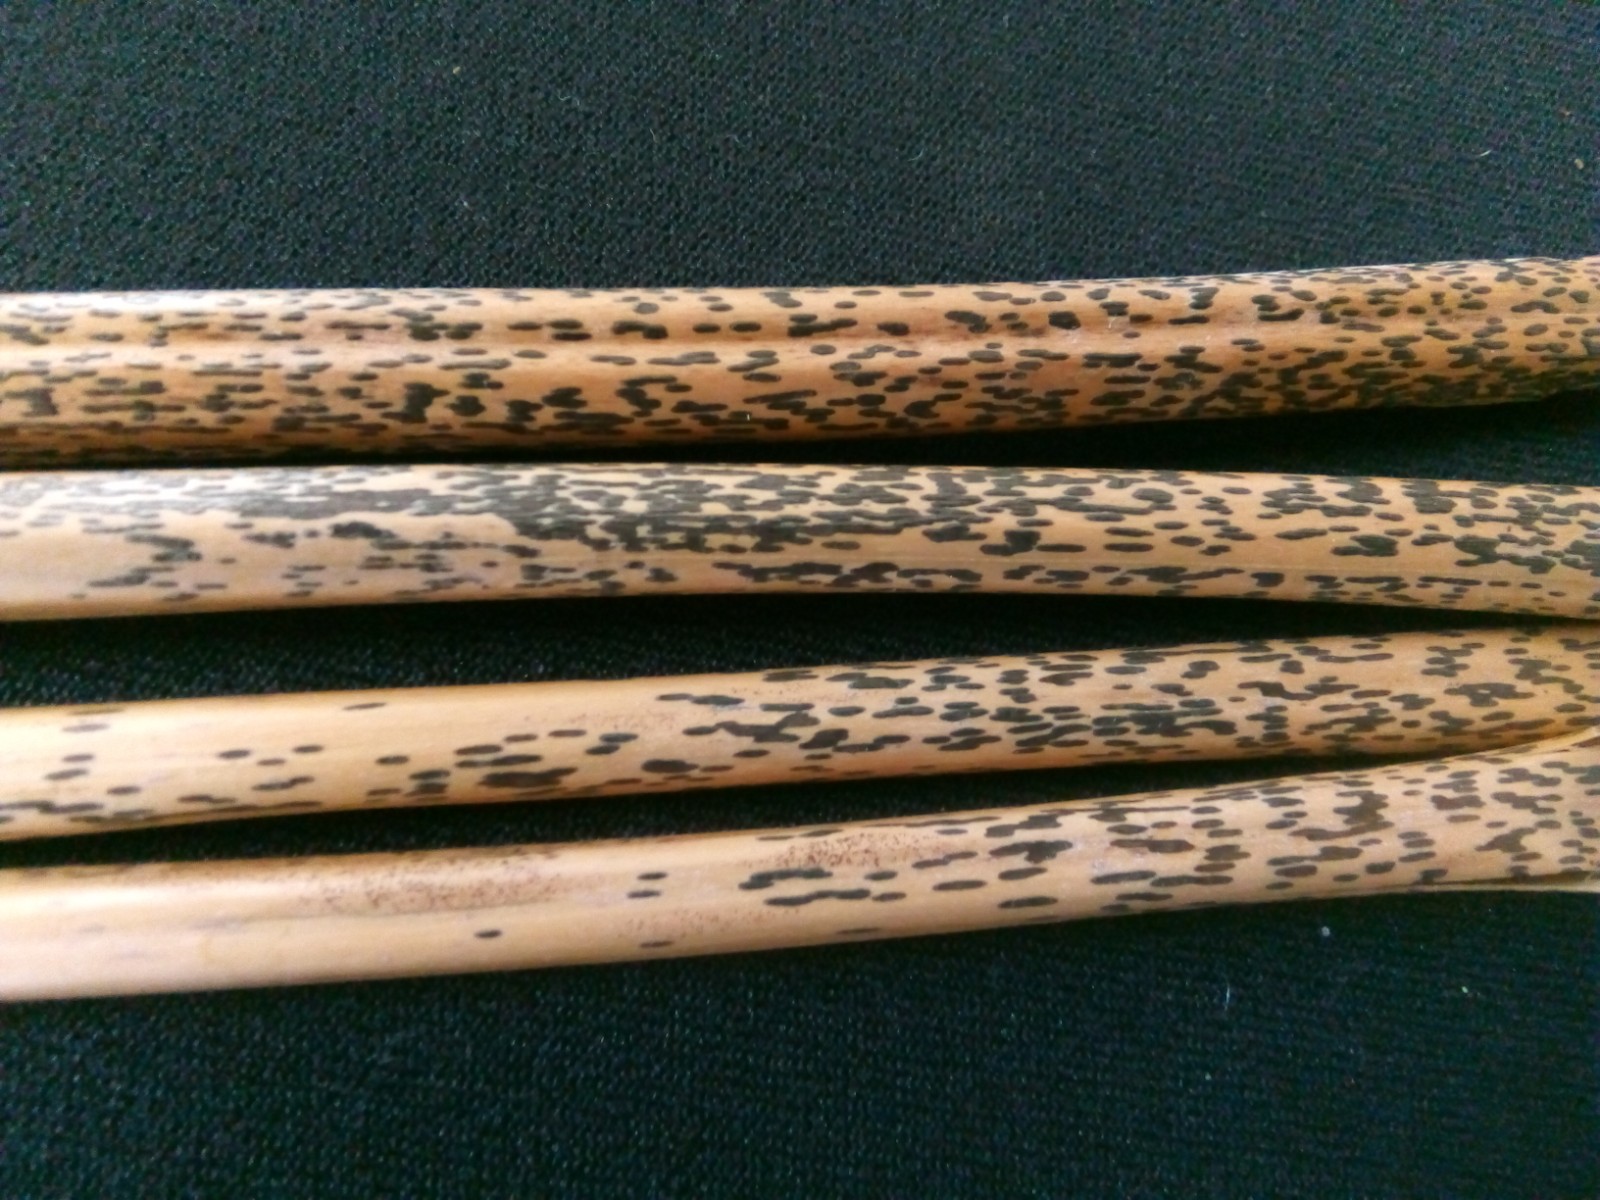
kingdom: Fungi
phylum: Ascomycota
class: Dothideomycetes
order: Pleosporales
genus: Rhopographus
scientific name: Rhopographus filicinus
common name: Bracken map
